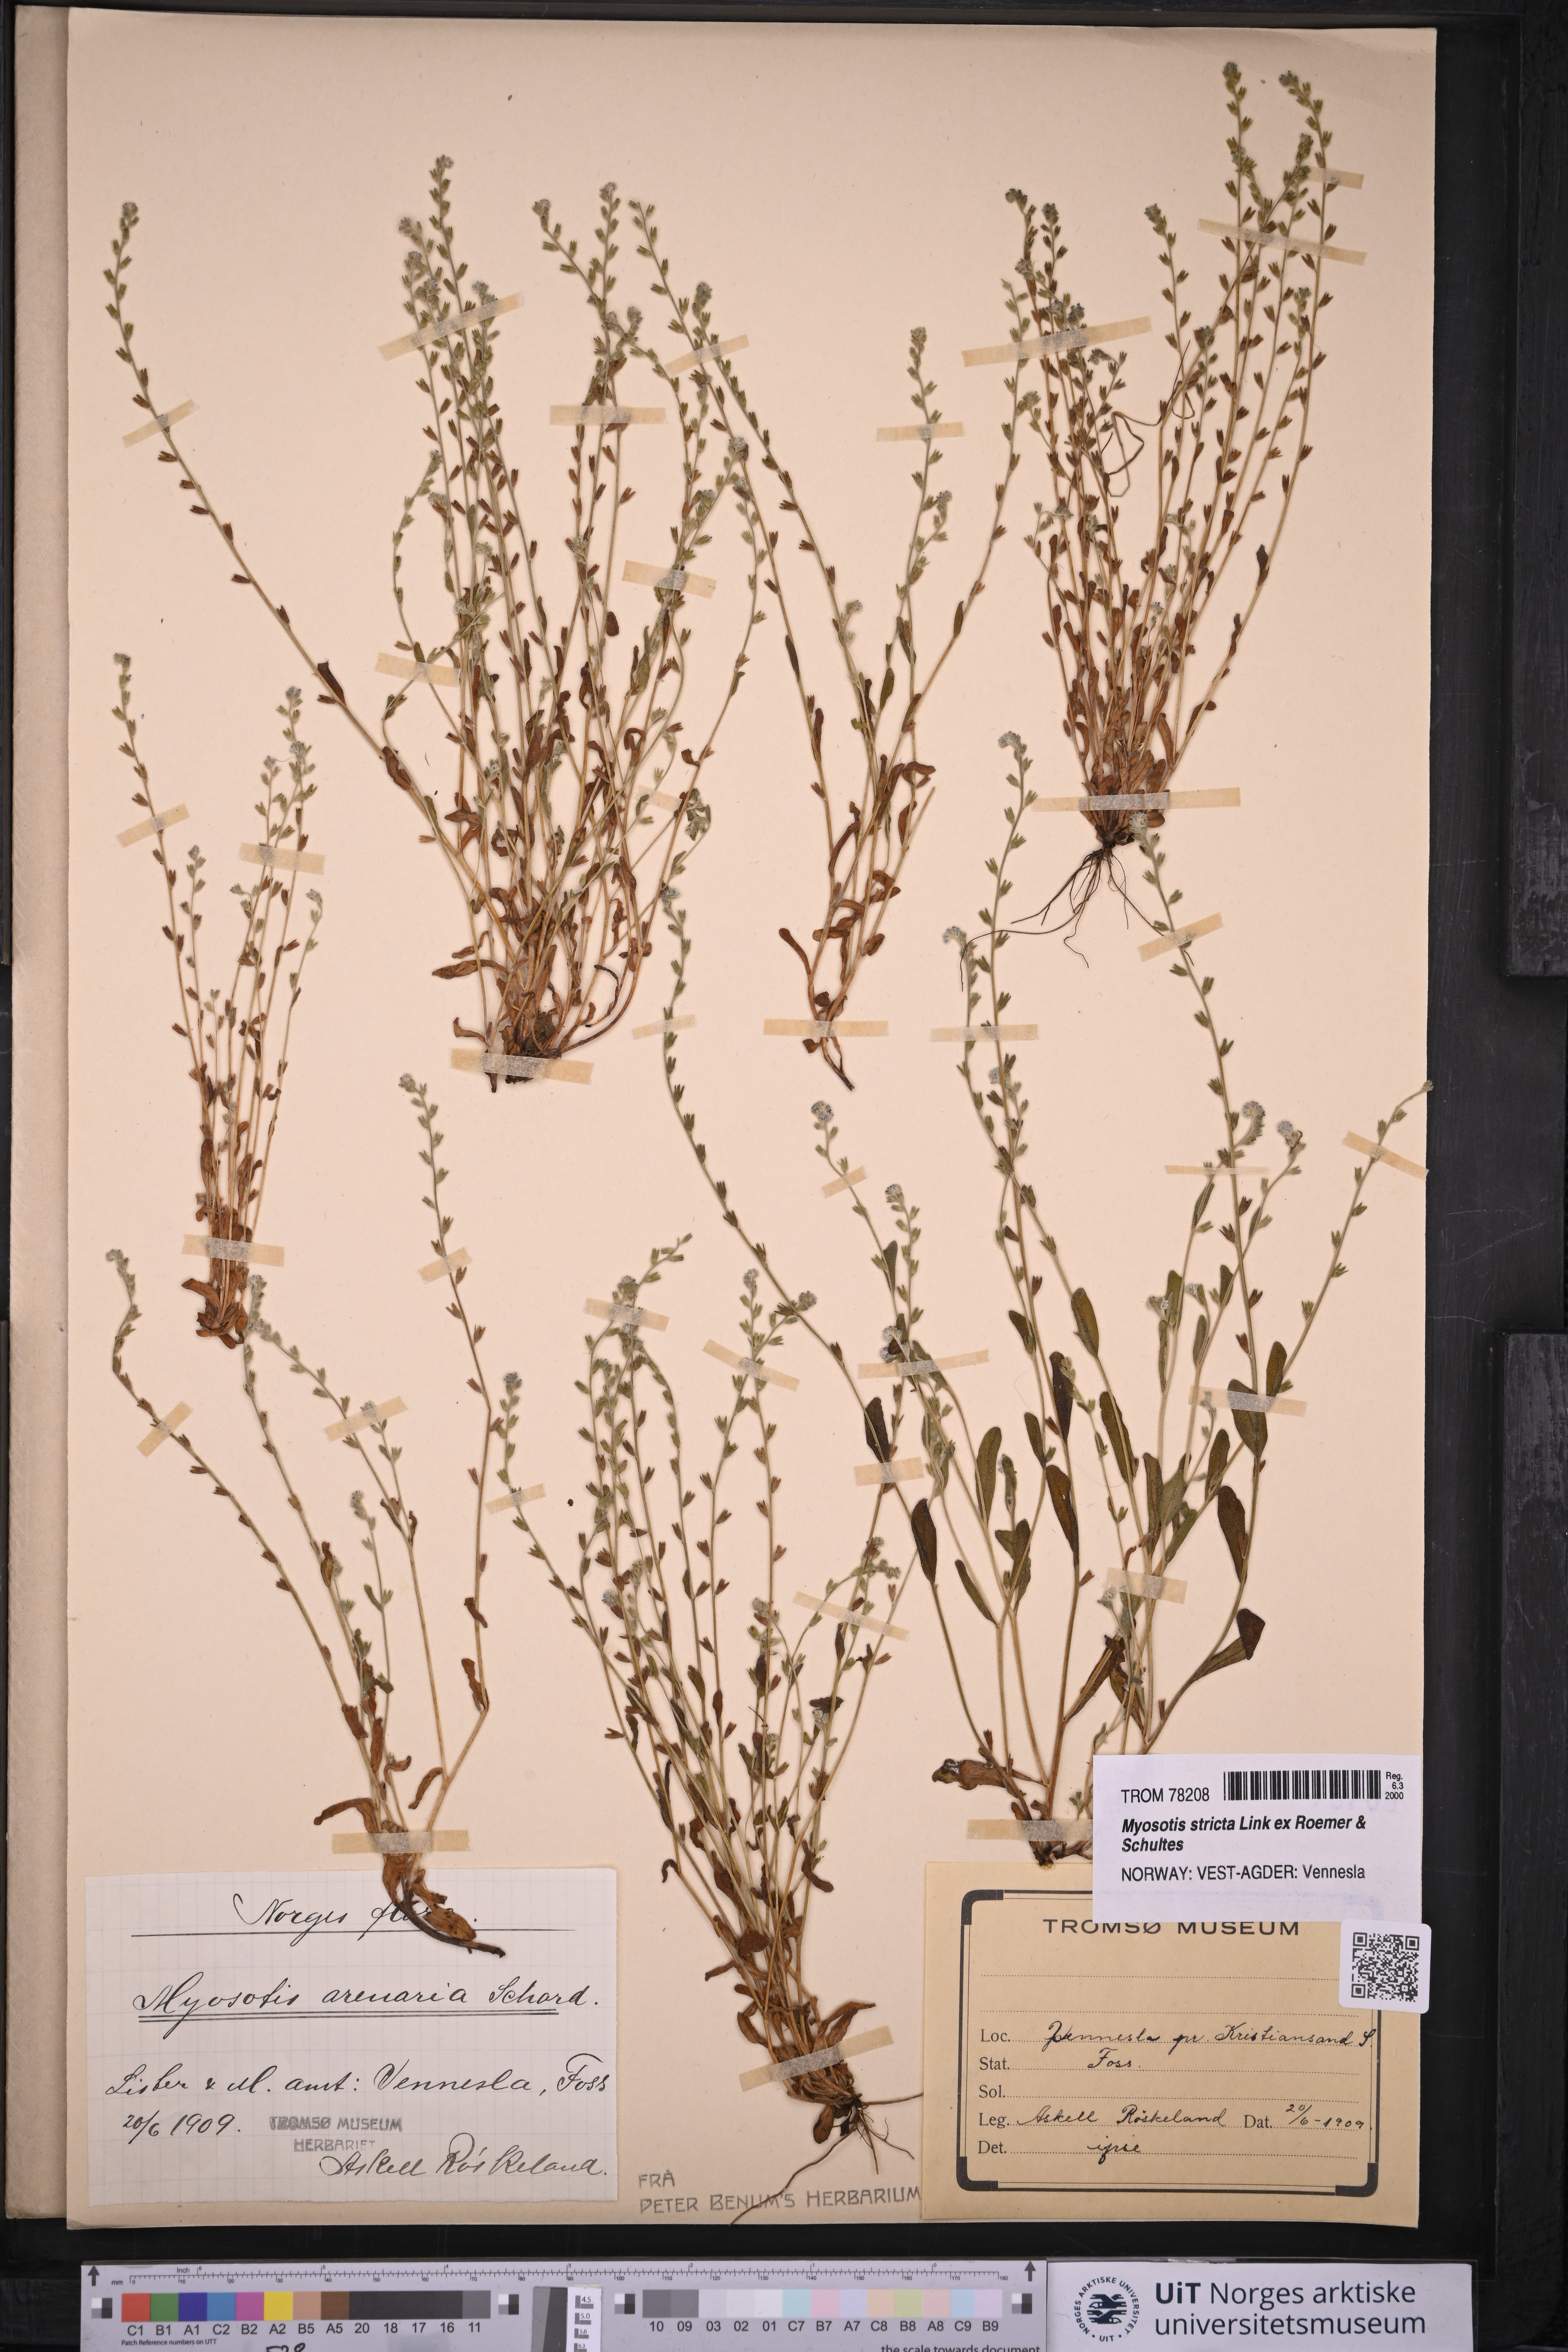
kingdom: Plantae
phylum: Tracheophyta
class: Magnoliopsida
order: Boraginales
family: Boraginaceae
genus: Myosotis
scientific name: Myosotis stricta
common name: Strict forget-me-not
